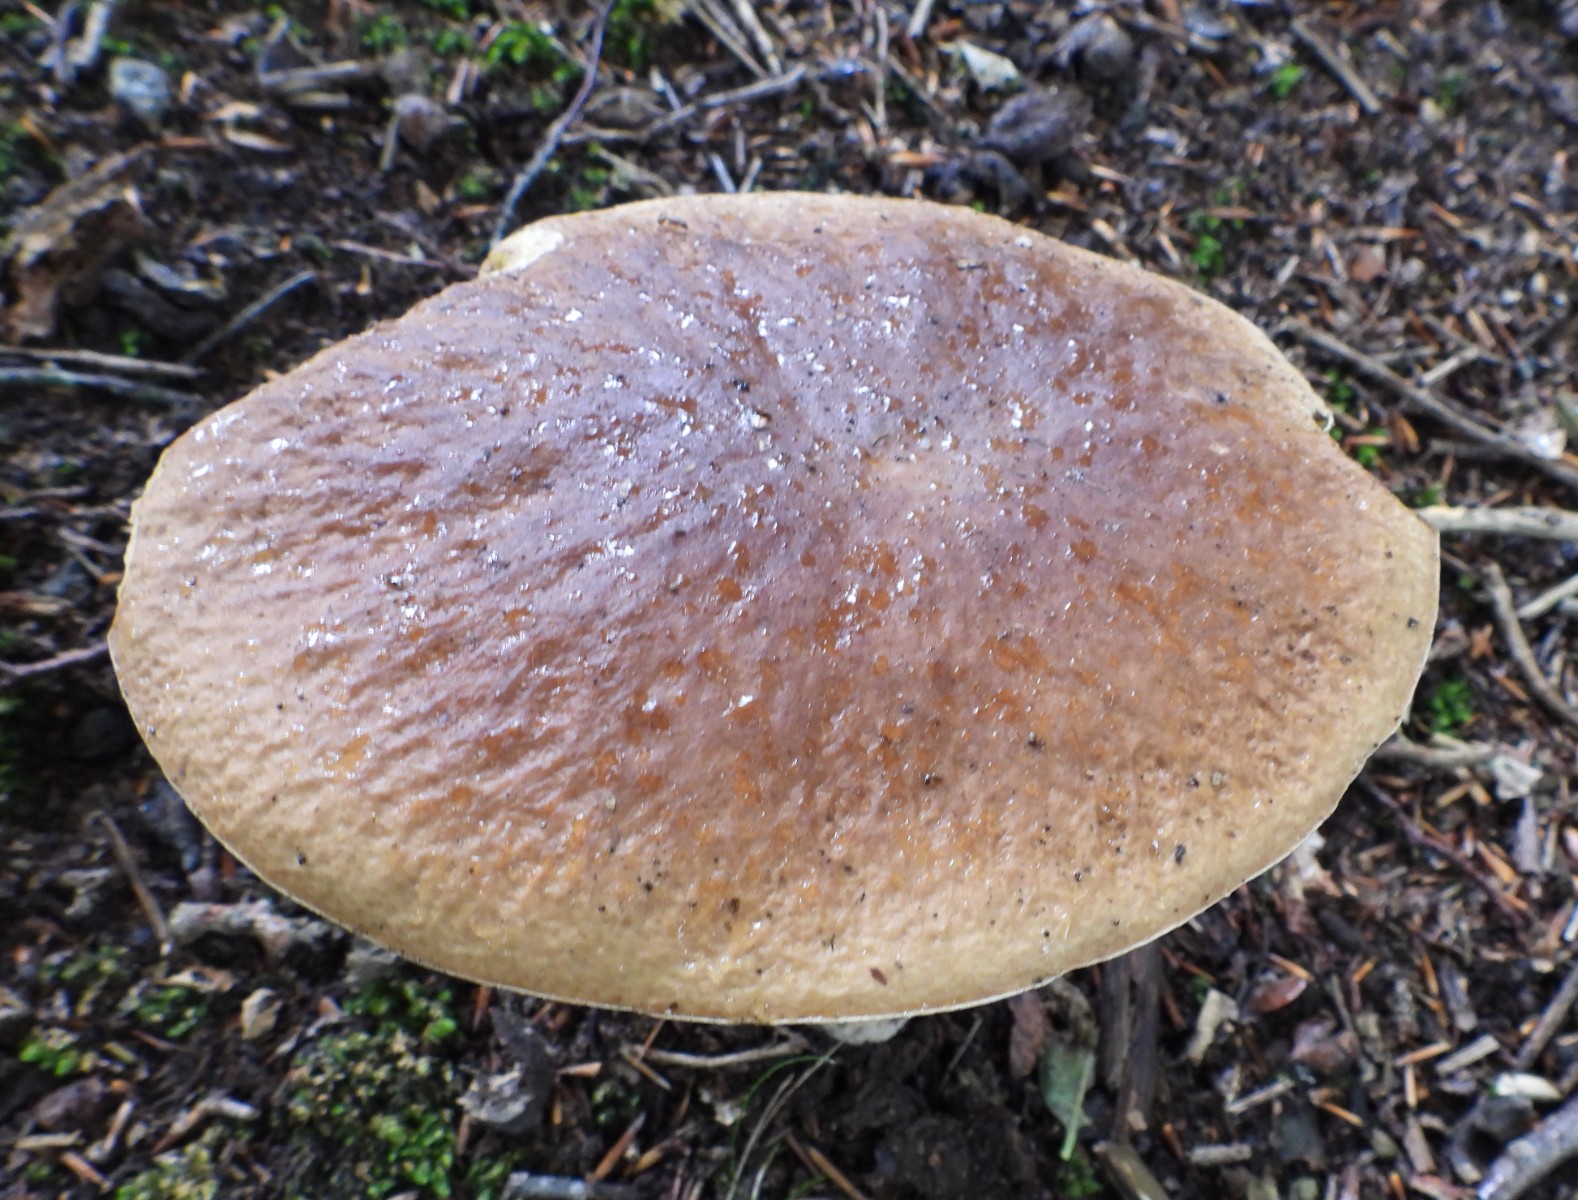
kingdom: Fungi
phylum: Basidiomycota
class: Agaricomycetes
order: Boletales
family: Boletaceae
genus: Imleria
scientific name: Imleria badia
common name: brunstokket rørhat
